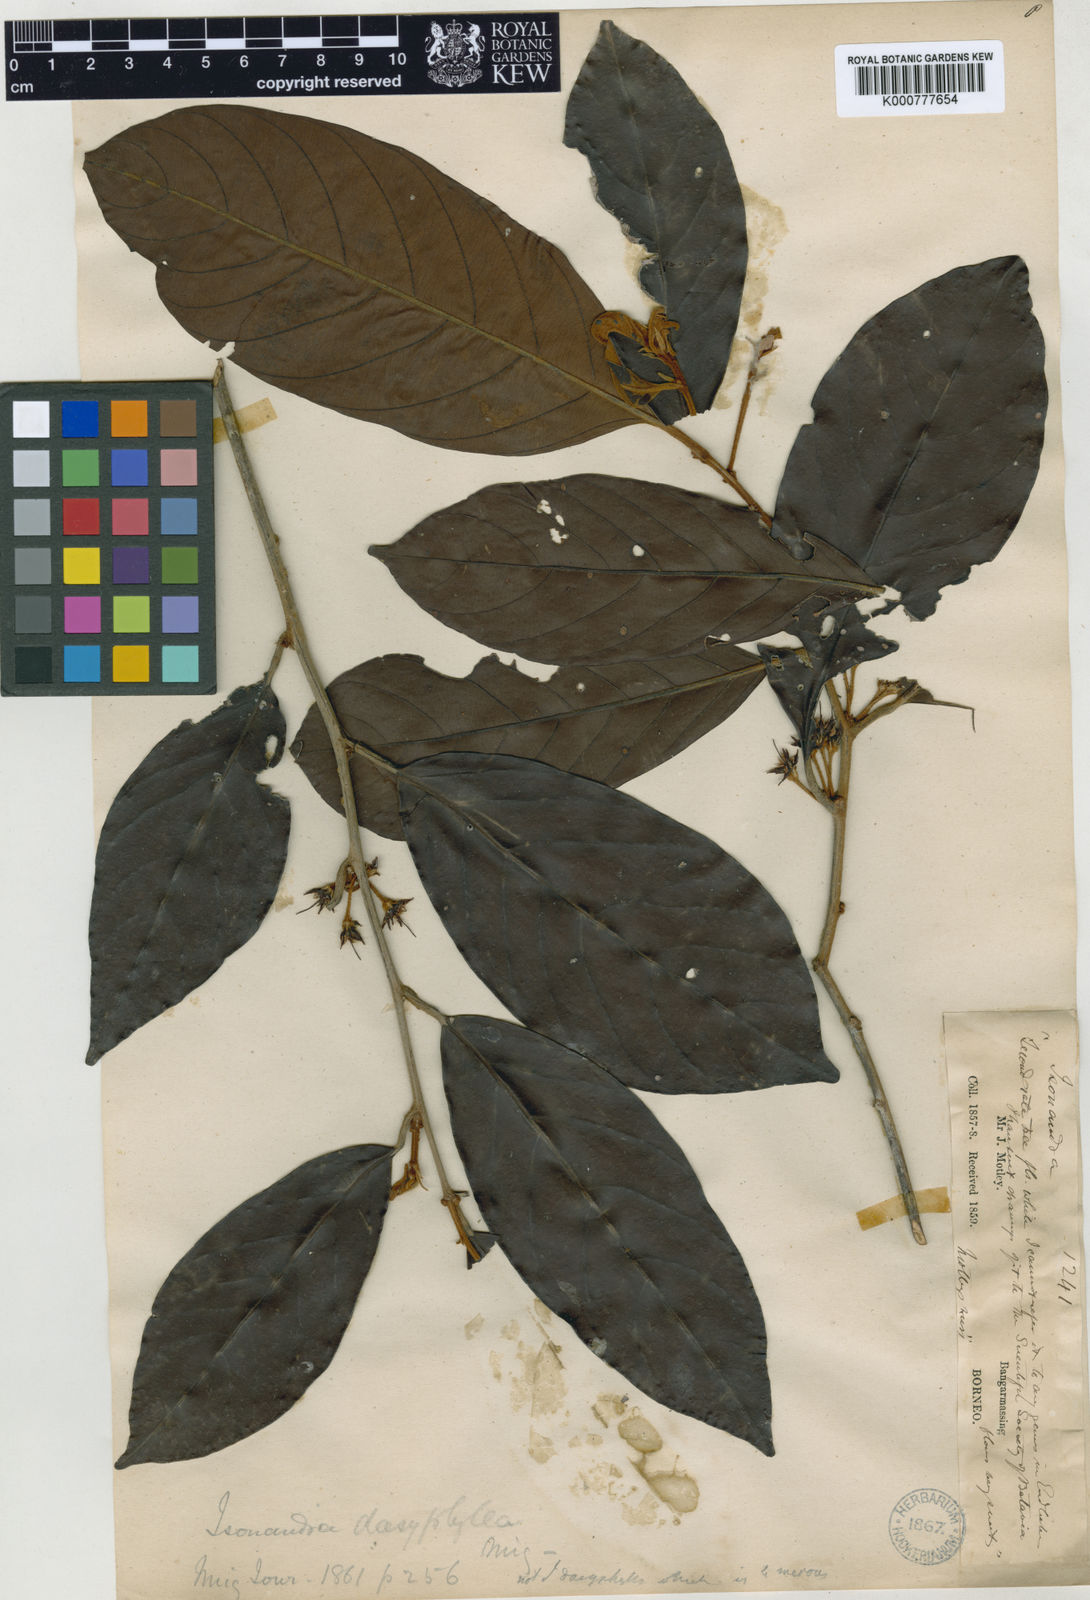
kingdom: Plantae
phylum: Tracheophyta
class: Magnoliopsida
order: Ericales
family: Sapotaceae
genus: Palaquium
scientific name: Palaquium dasyphyllum
